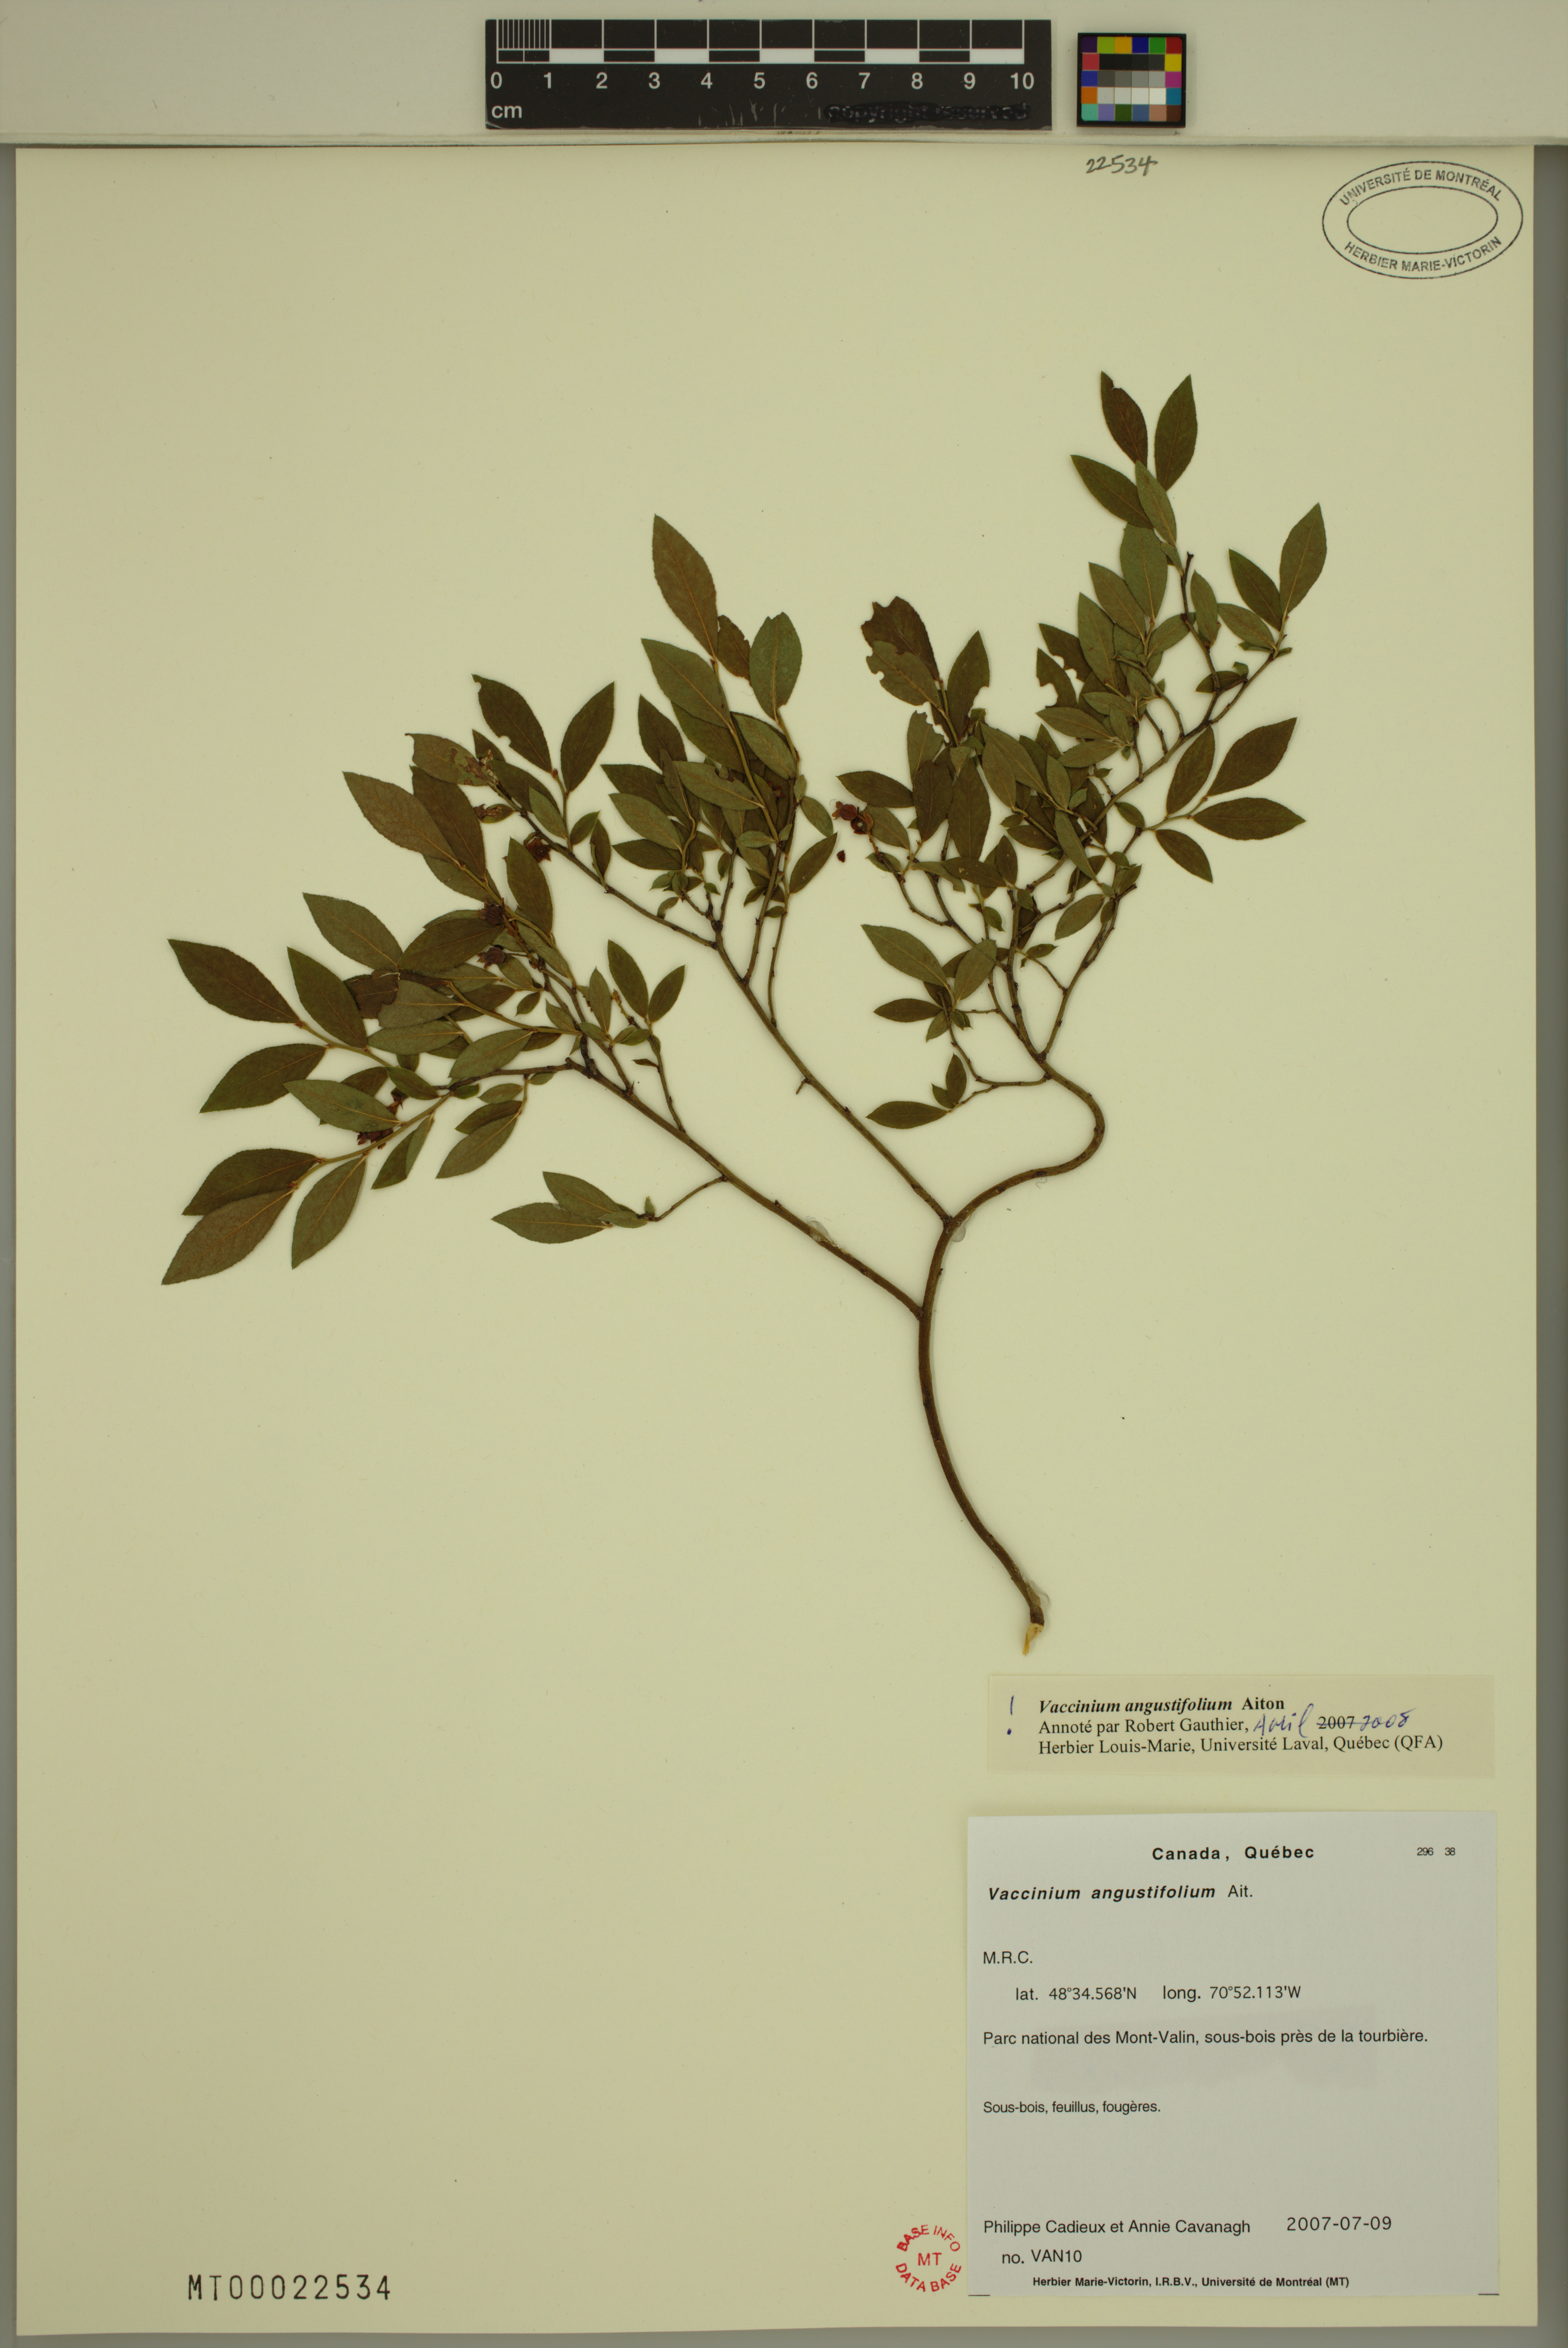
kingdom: Plantae
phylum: Tracheophyta
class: Magnoliopsida
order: Ericales
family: Ericaceae
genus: Vaccinium
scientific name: Vaccinium angustifolium
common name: Early lowbush blueberry
